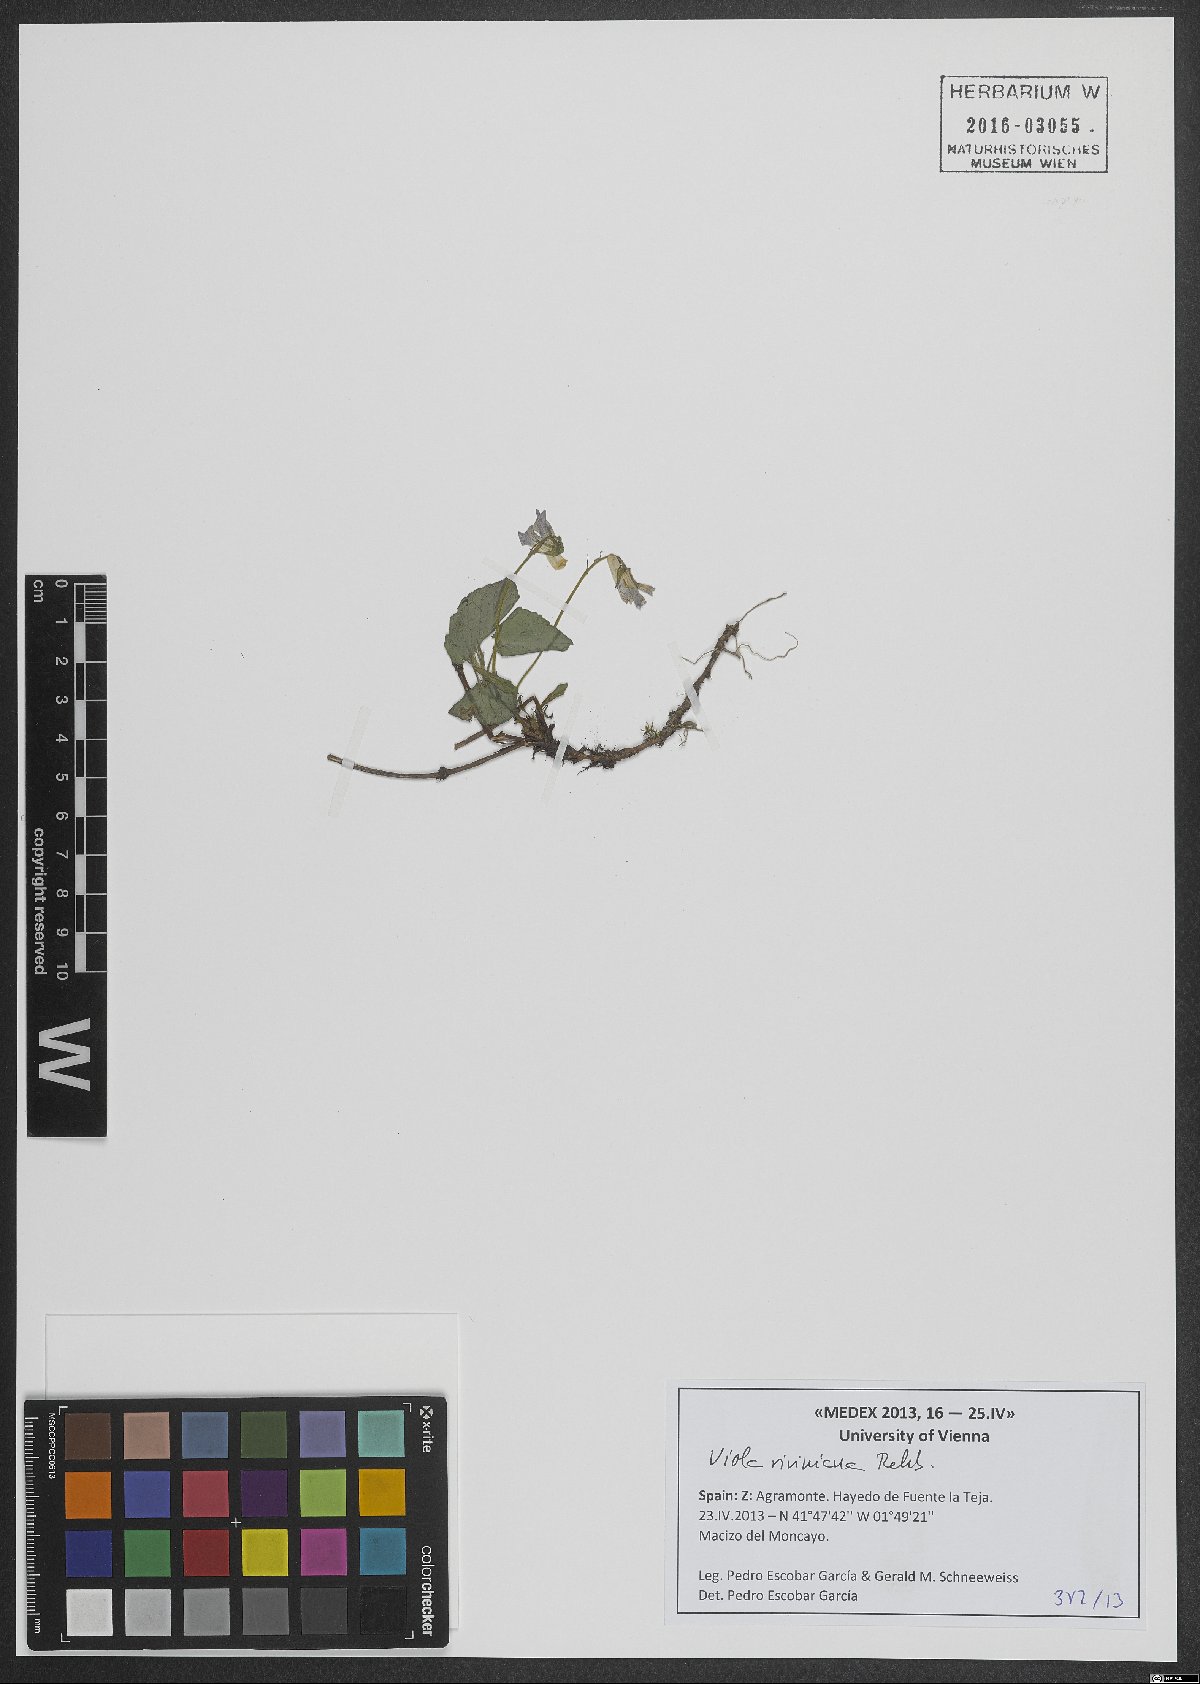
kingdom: Plantae
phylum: Tracheophyta
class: Magnoliopsida
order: Malpighiales
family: Violaceae
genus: Viola
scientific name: Viola riviniana
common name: Common dog-violet
